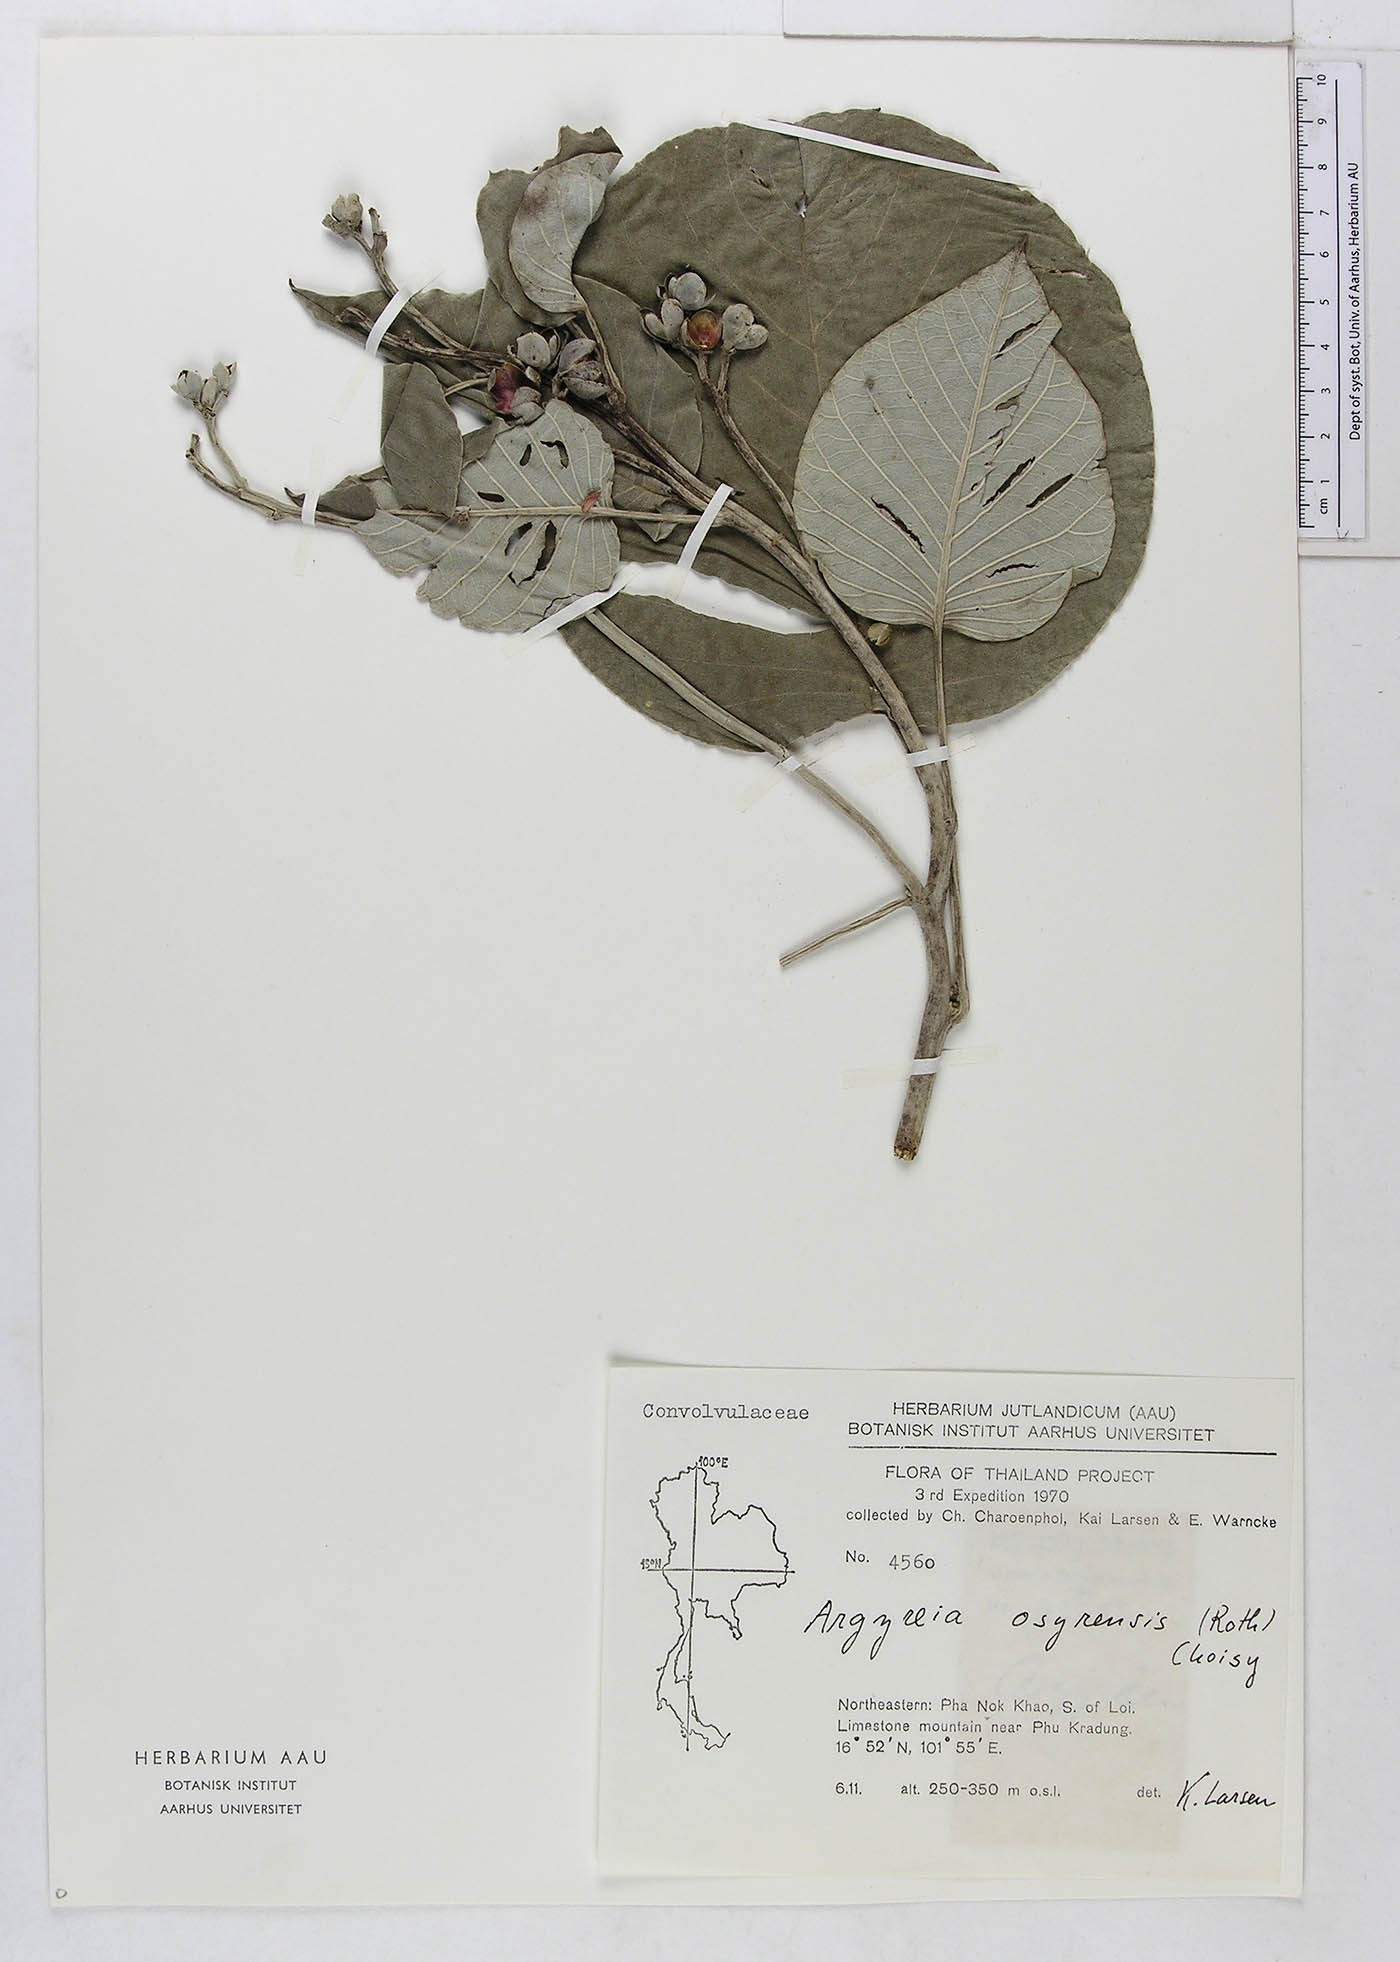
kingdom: Plantae
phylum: Tracheophyta
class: Magnoliopsida
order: Solanales
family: Convolvulaceae
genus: Argyreia
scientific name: Argyreia osyrensis
